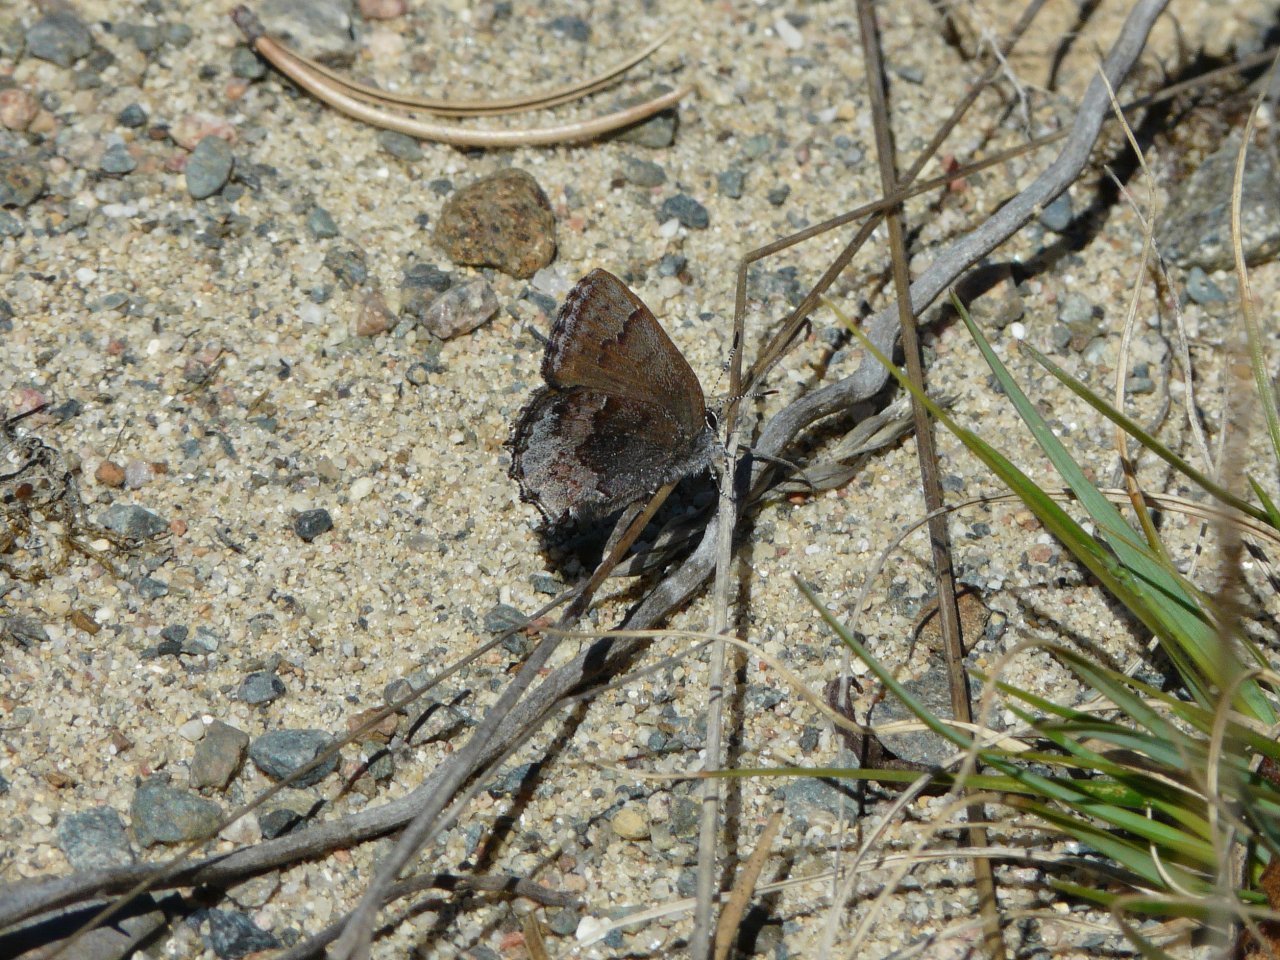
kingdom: Animalia
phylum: Arthropoda
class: Insecta
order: Lepidoptera
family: Lycaenidae
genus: Callophrys
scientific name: Callophrys polios
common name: Hoary Elfin
